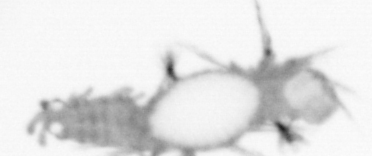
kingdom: Animalia
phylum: Annelida
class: Polychaeta
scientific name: Polychaeta
